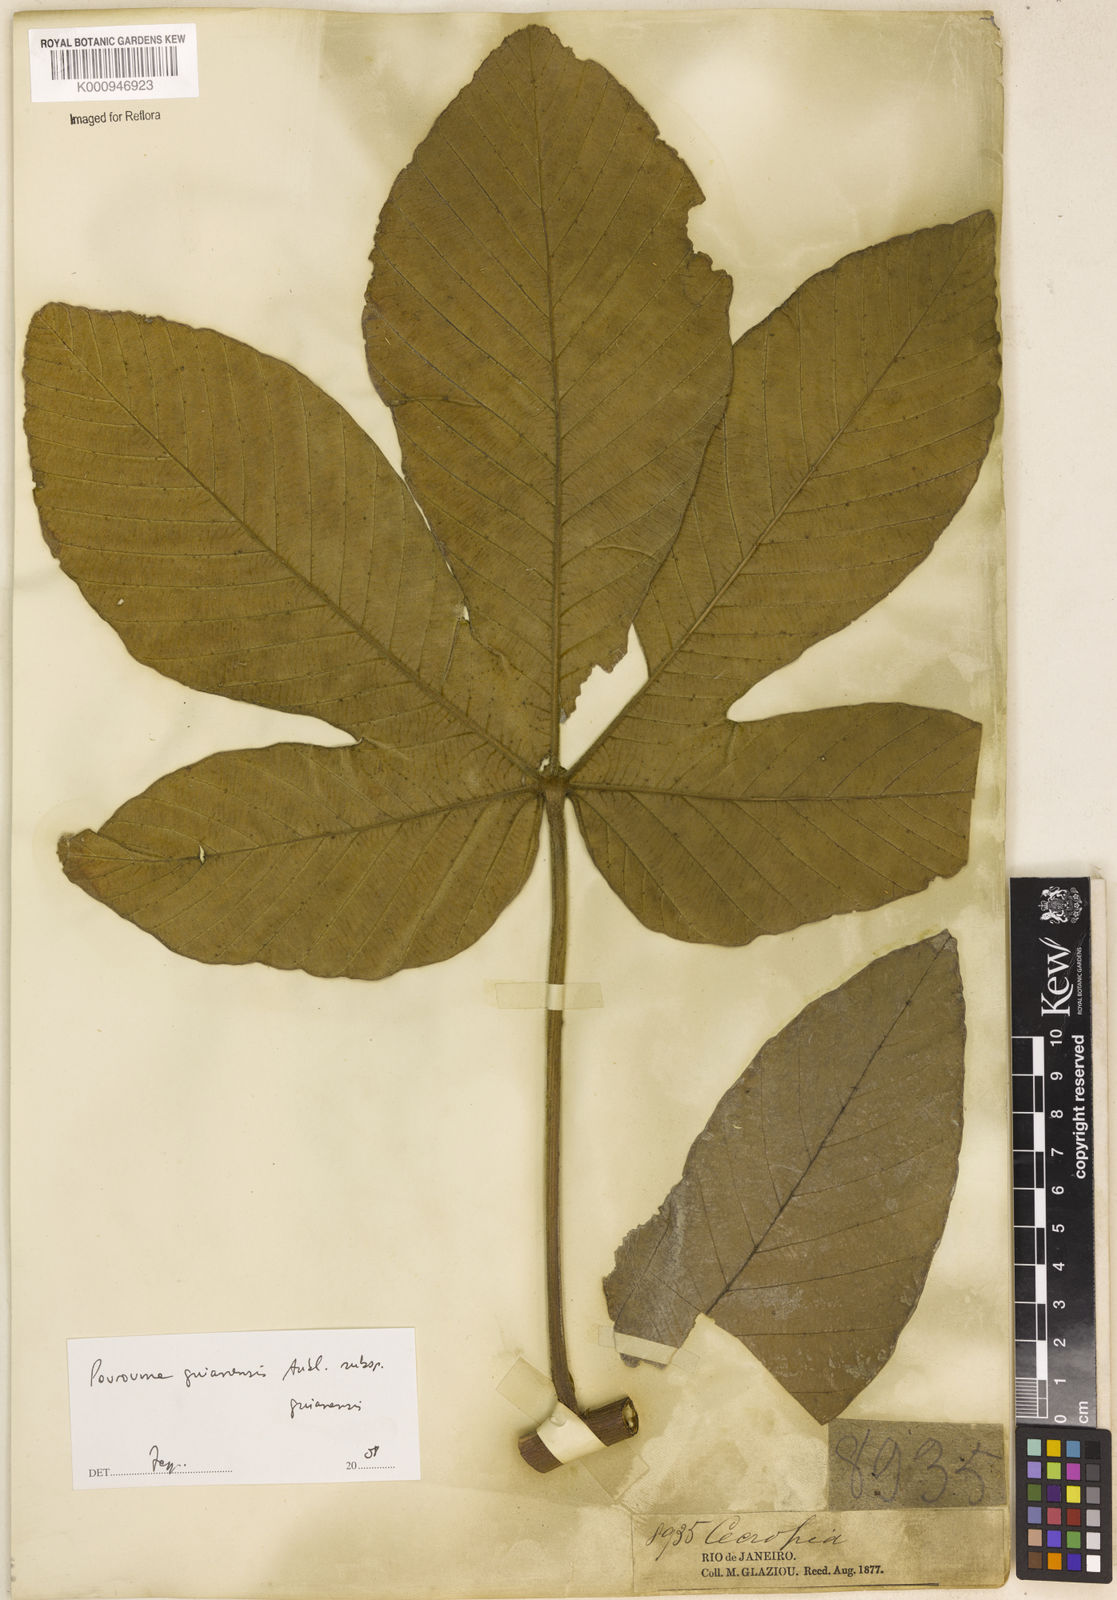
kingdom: Plantae
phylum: Tracheophyta
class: Magnoliopsida
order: Rosales
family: Urticaceae
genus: Pourouma
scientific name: Pourouma guianensis
